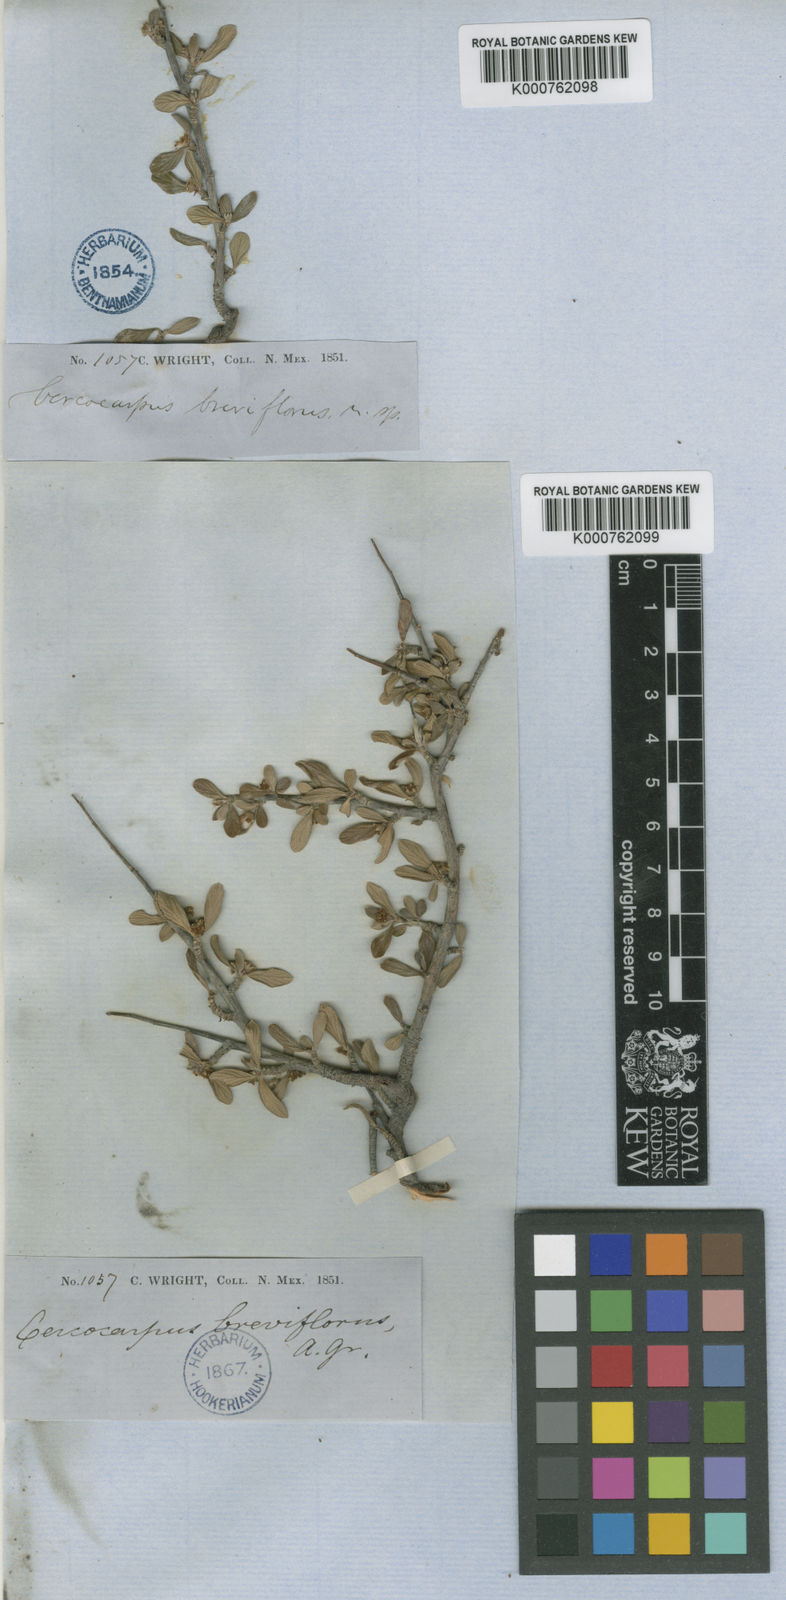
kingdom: Plantae
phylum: Tracheophyta
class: Magnoliopsida
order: Rosales
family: Rosaceae
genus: Cercocarpus
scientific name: Cercocarpus breviflorus
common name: Wright's mountain-mahogany
